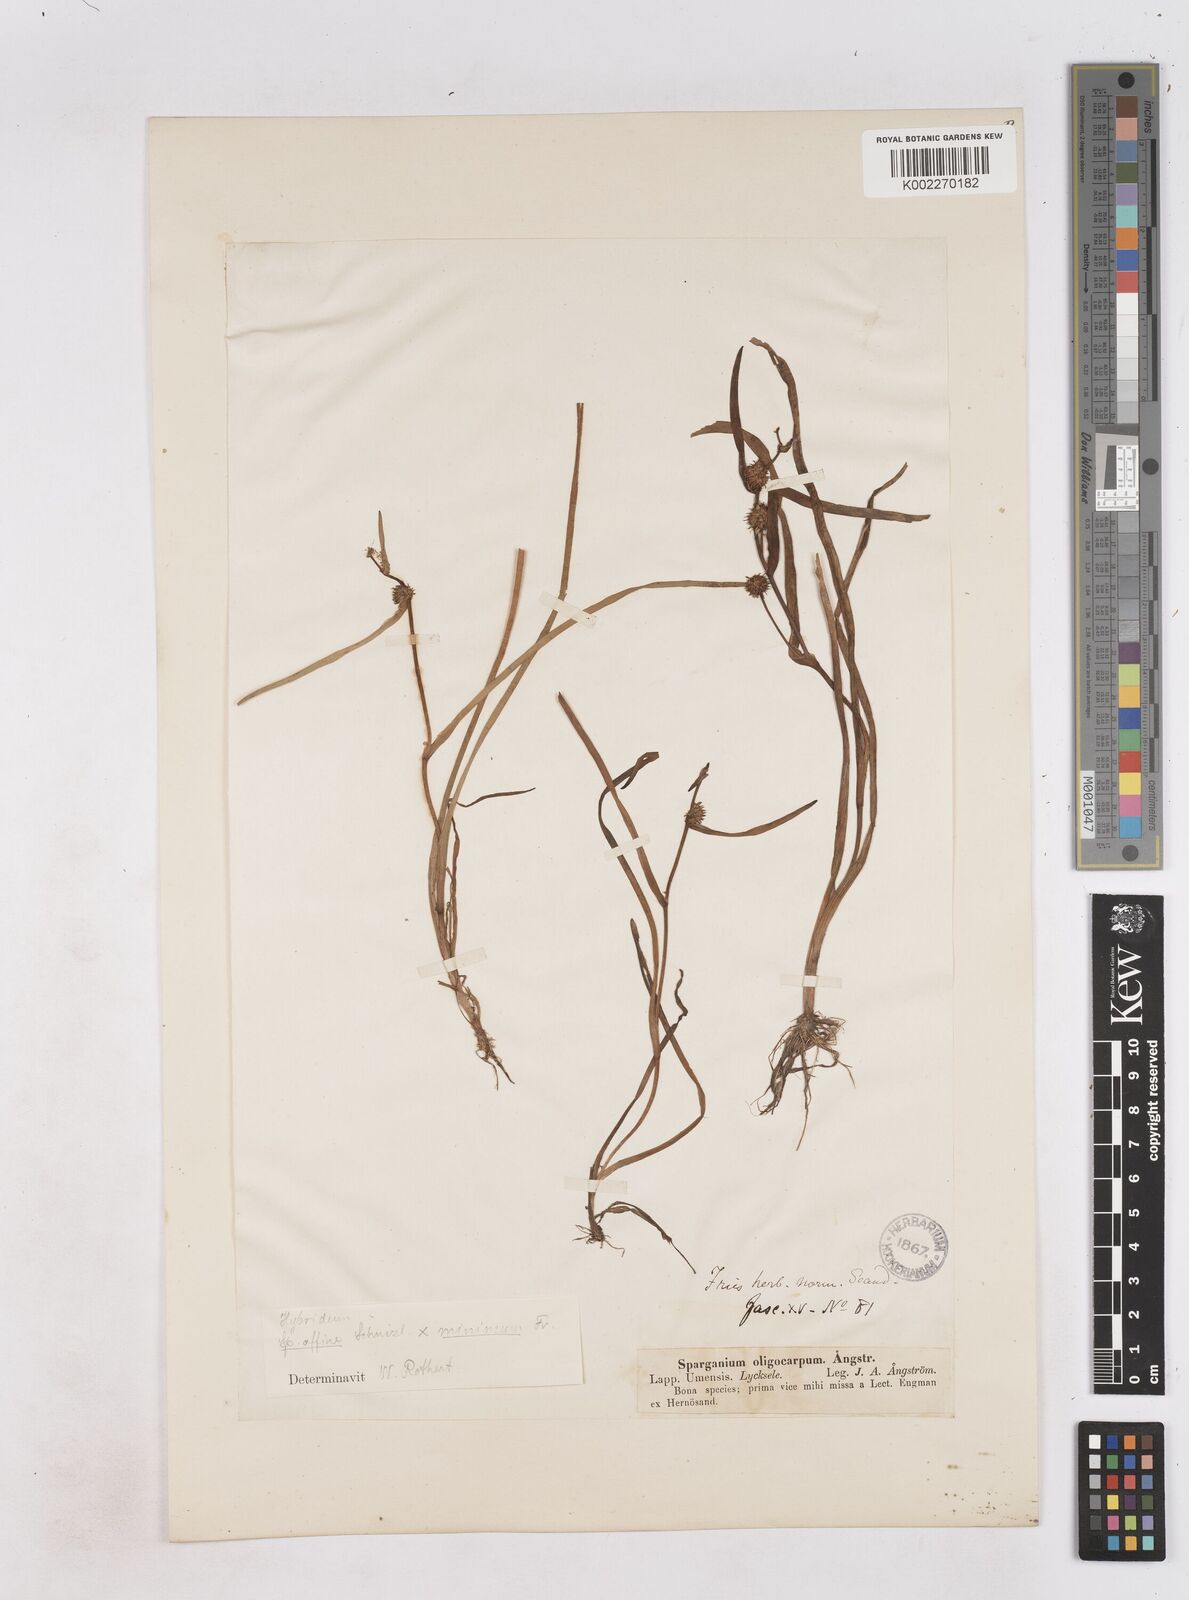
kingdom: Plantae
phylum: Tracheophyta
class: Liliopsida
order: Poales
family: Typhaceae
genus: Sparganium
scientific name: Sparganium oligocarpon
